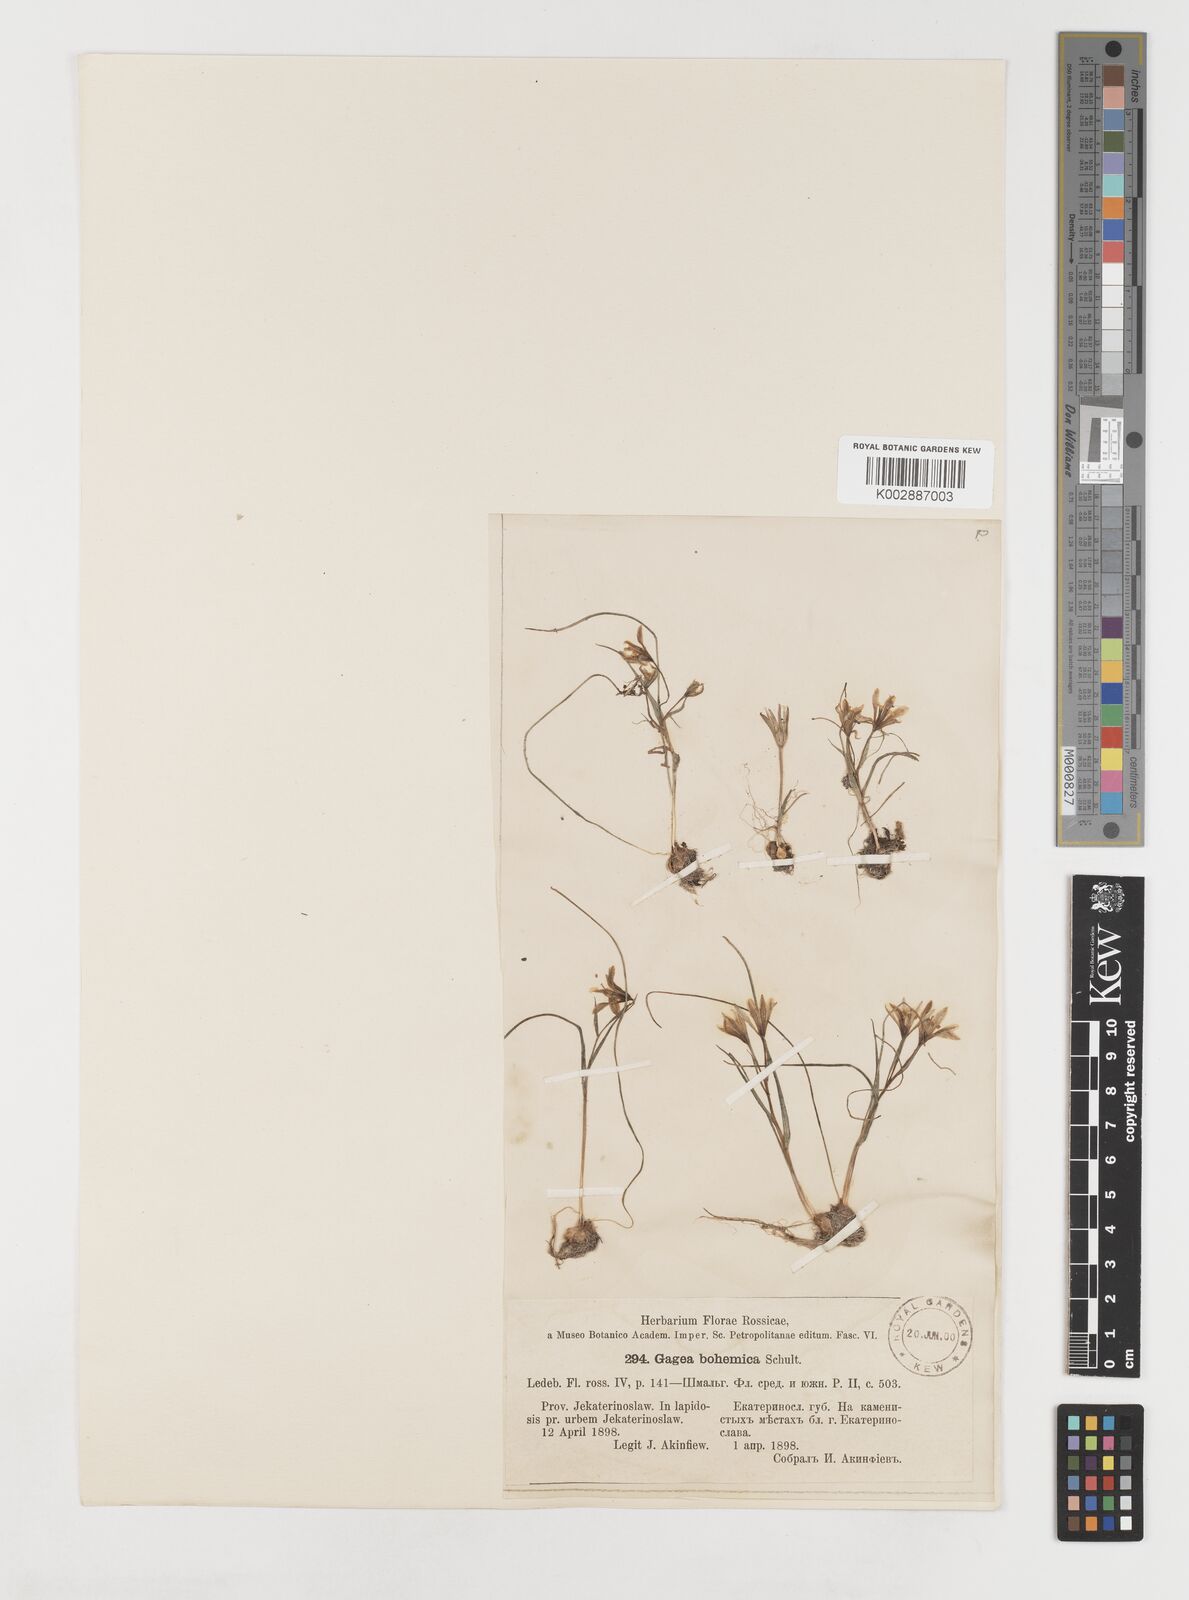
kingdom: Plantae
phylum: Tracheophyta
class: Liliopsida
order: Liliales
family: Liliaceae
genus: Gagea
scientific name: Gagea bohemica
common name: Early star-of-bethlehem
